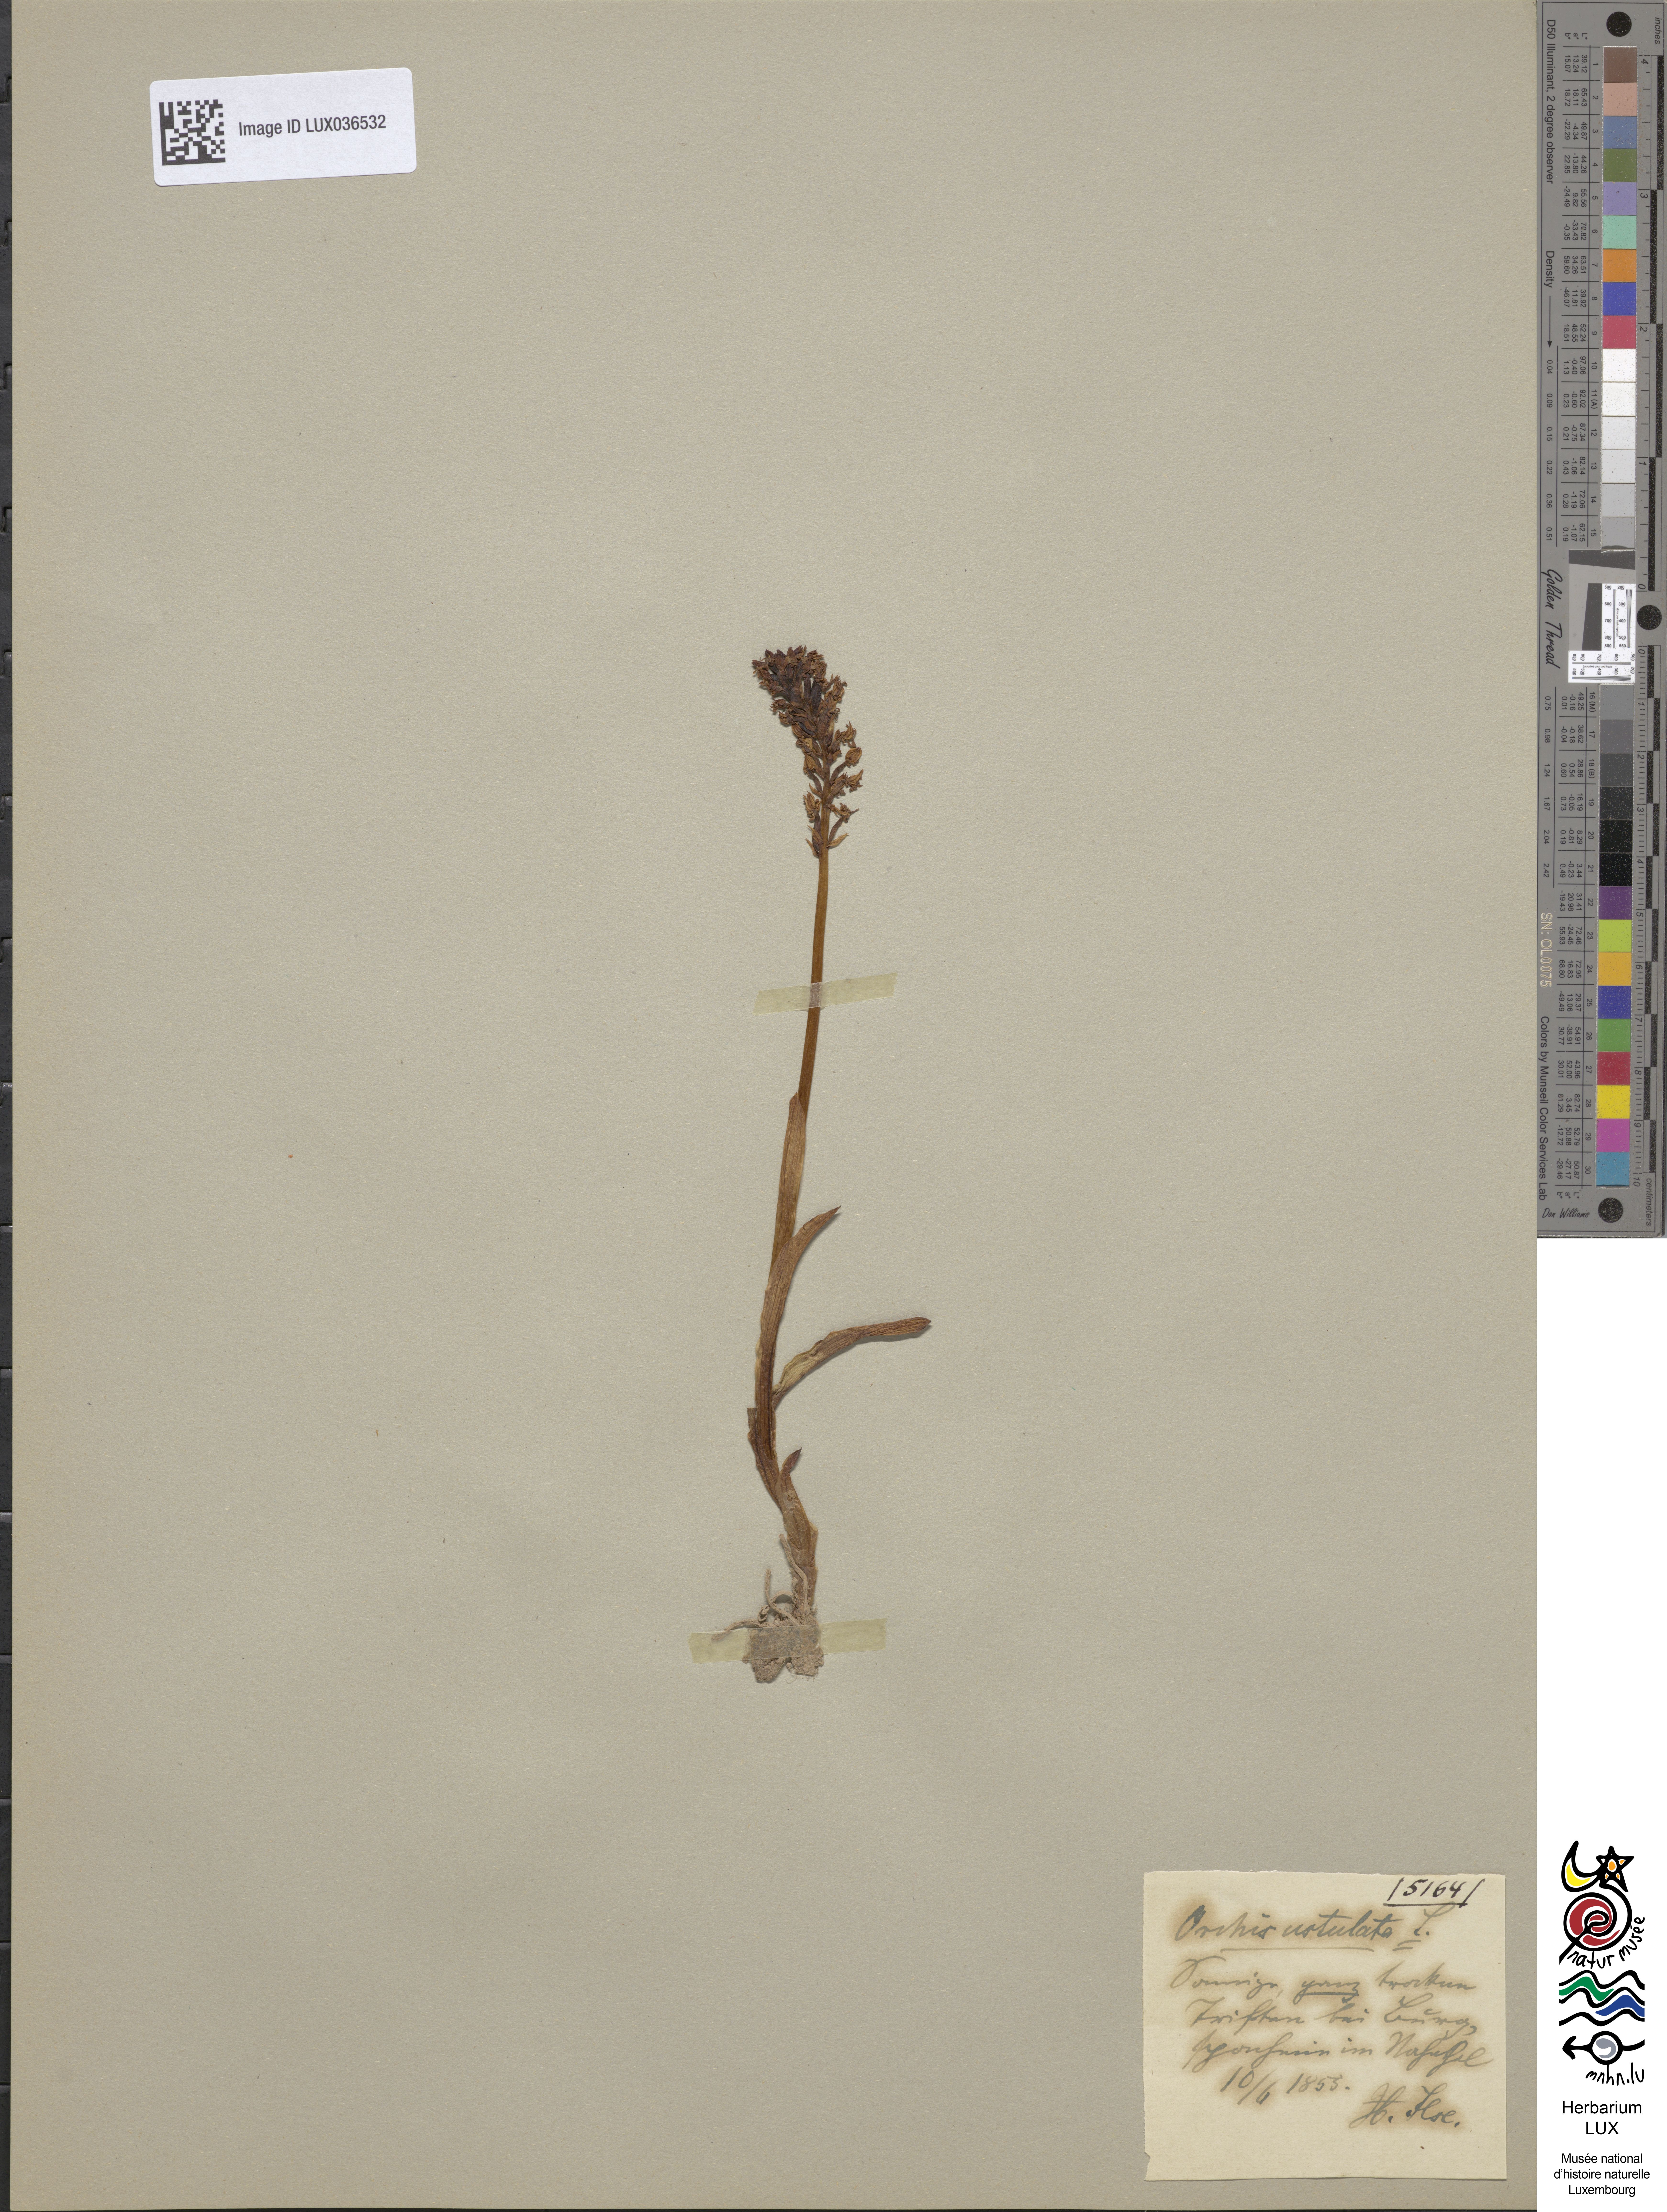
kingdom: Plantae
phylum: Tracheophyta
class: Liliopsida
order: Asparagales
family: Orchidaceae
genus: Neotinea
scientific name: Neotinea ustulata
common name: Burnt orchid
